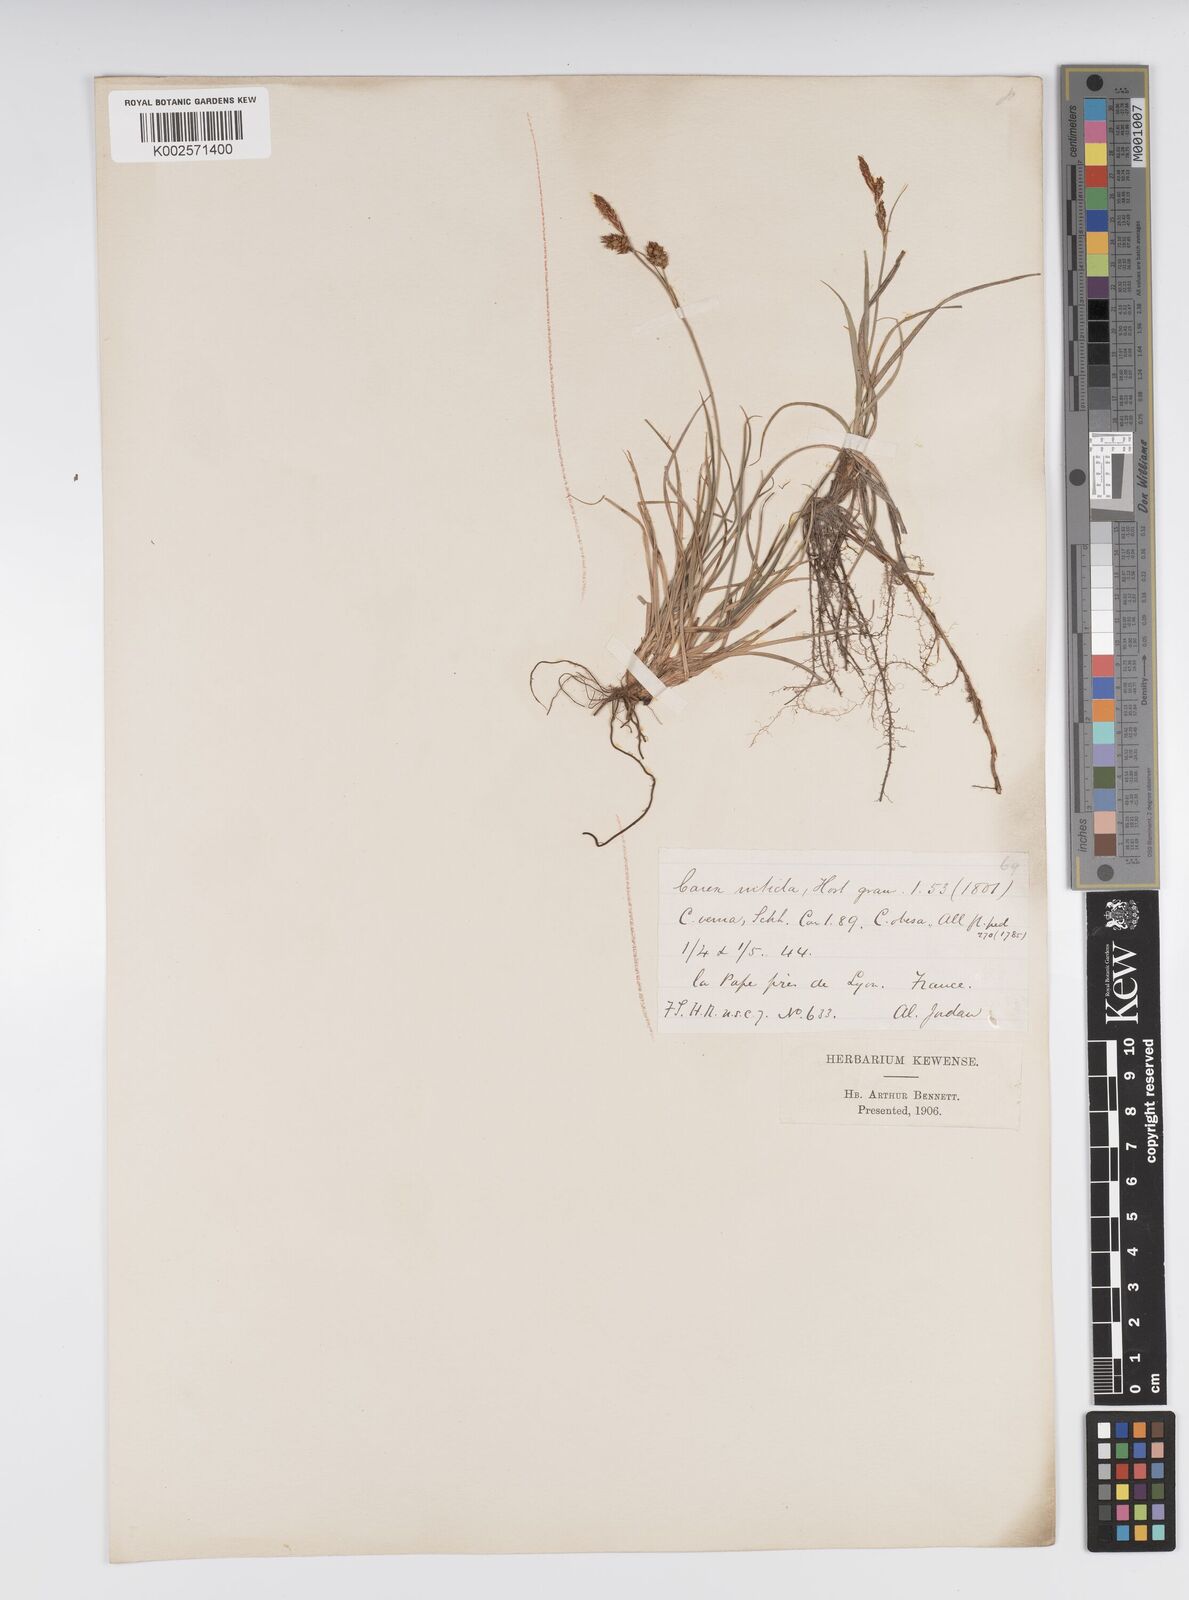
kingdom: Plantae
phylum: Tracheophyta
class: Liliopsida
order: Poales
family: Cyperaceae
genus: Carex
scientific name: Carex liparocarpos
